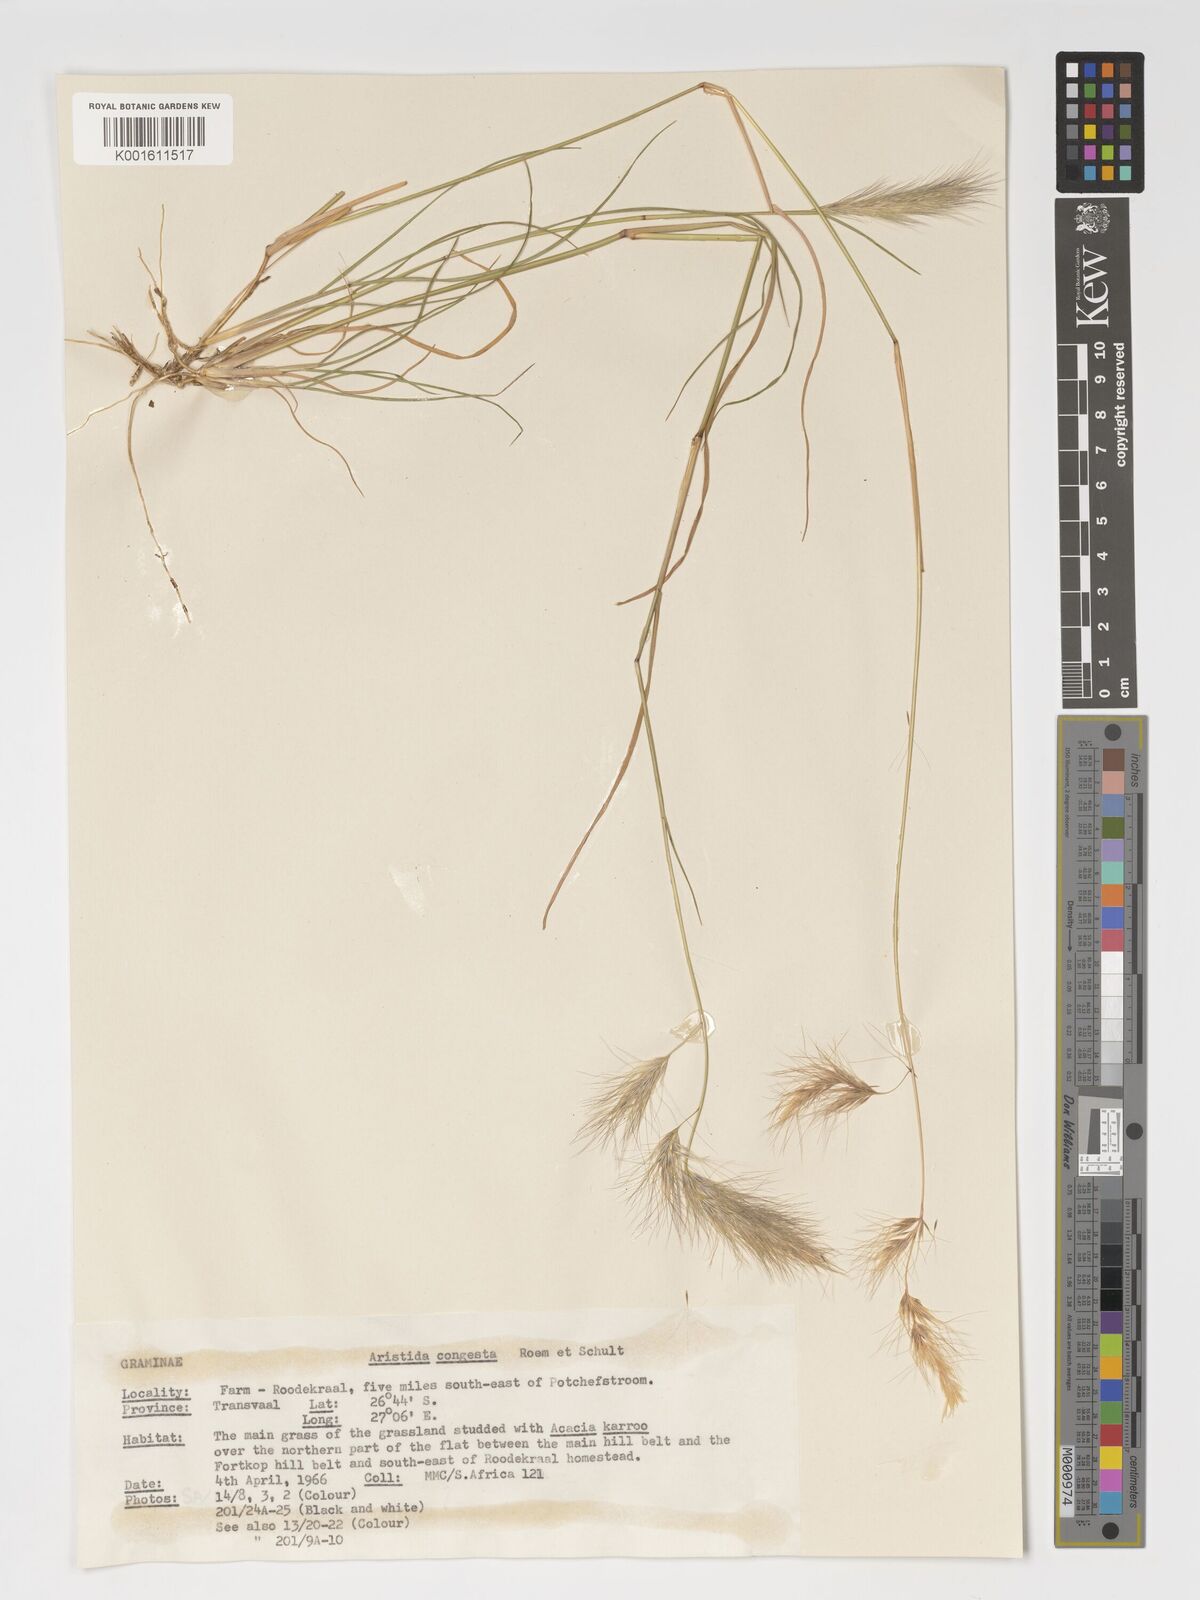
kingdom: Plantae
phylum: Tracheophyta
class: Liliopsida
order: Poales
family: Poaceae
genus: Aristida
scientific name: Aristida congesta
